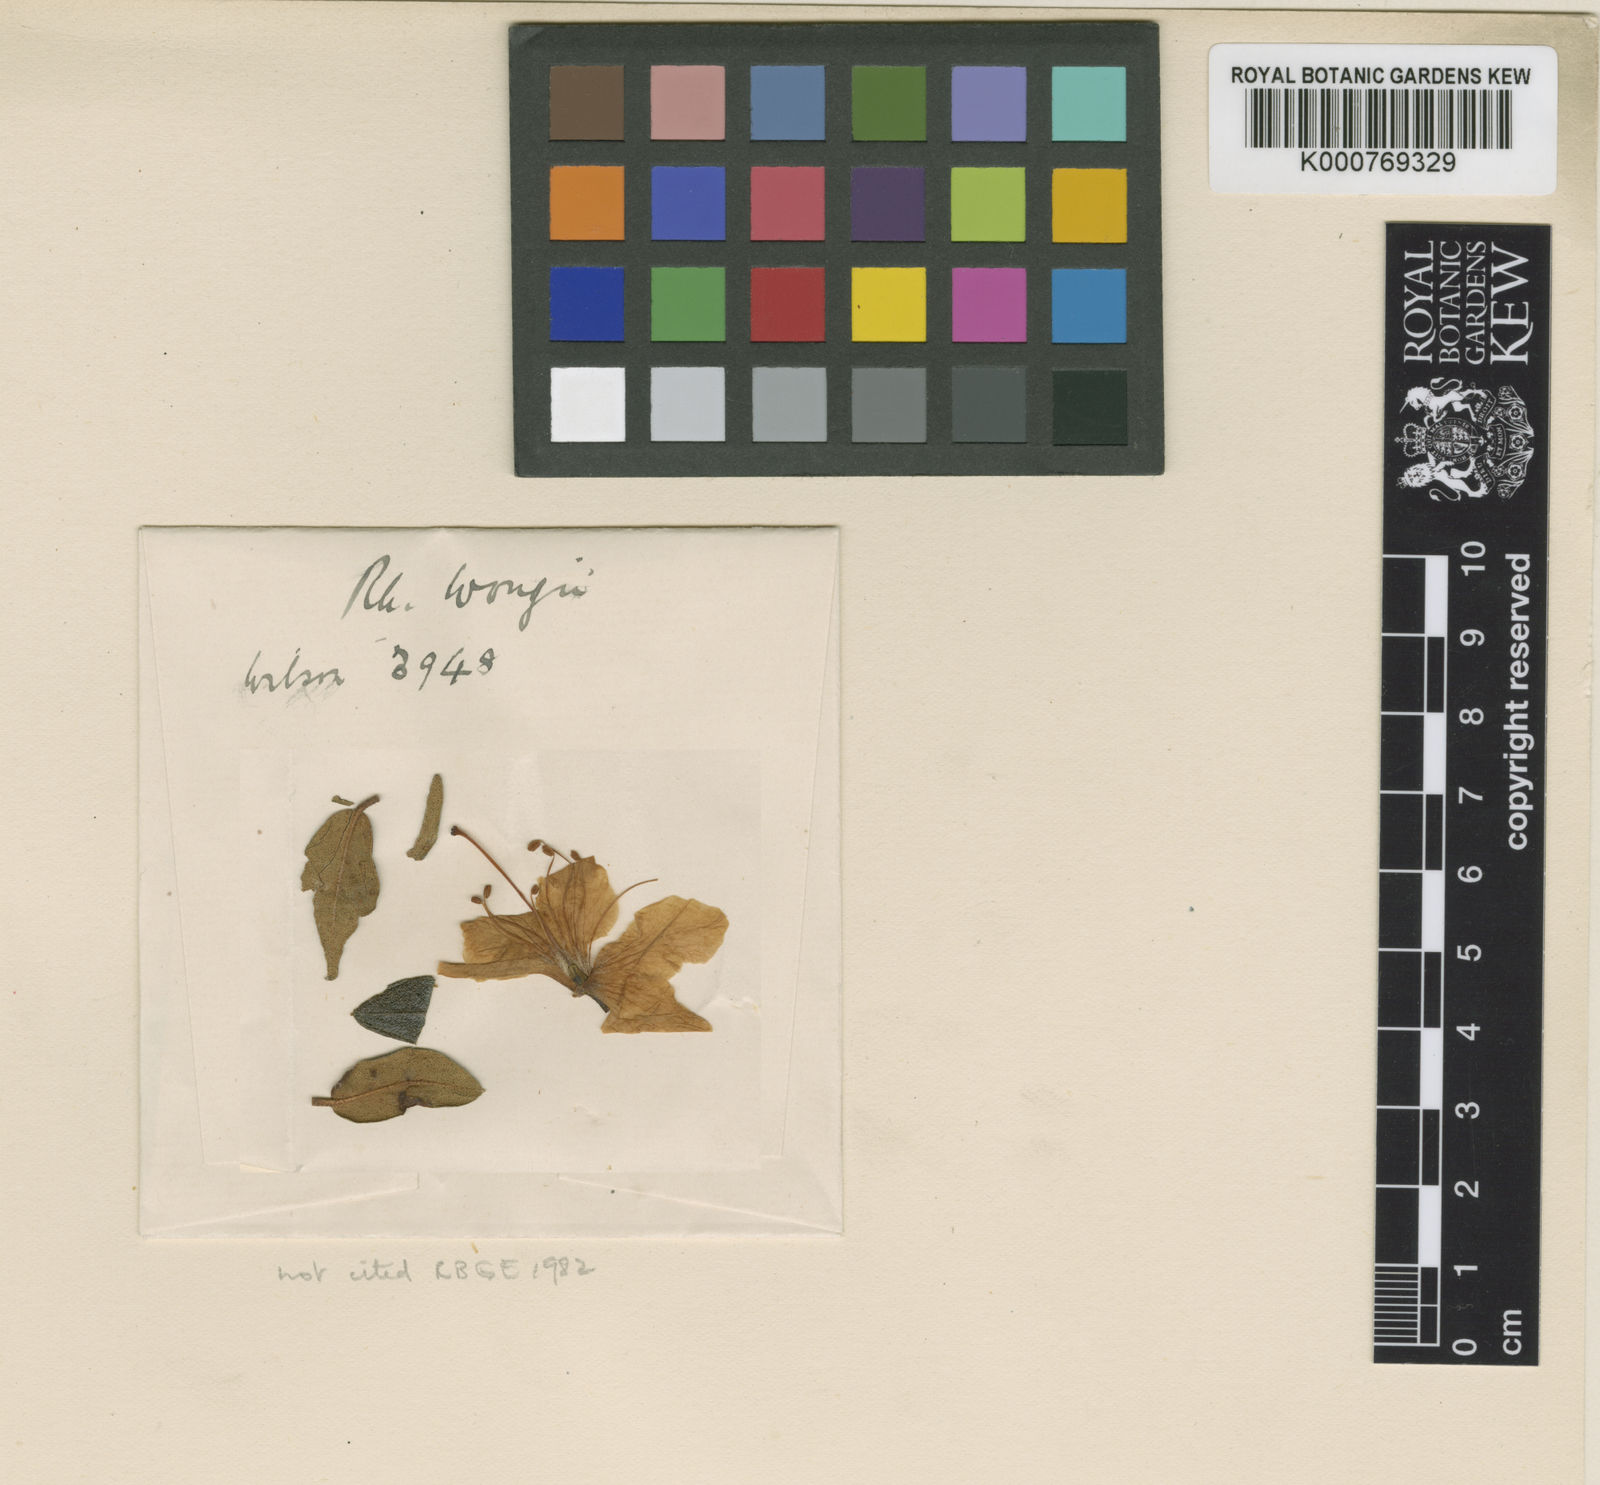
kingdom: Plantae
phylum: Tracheophyta
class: Magnoliopsida
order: Ericales
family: Ericaceae
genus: Rhododendron
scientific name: Rhododendron wongii
